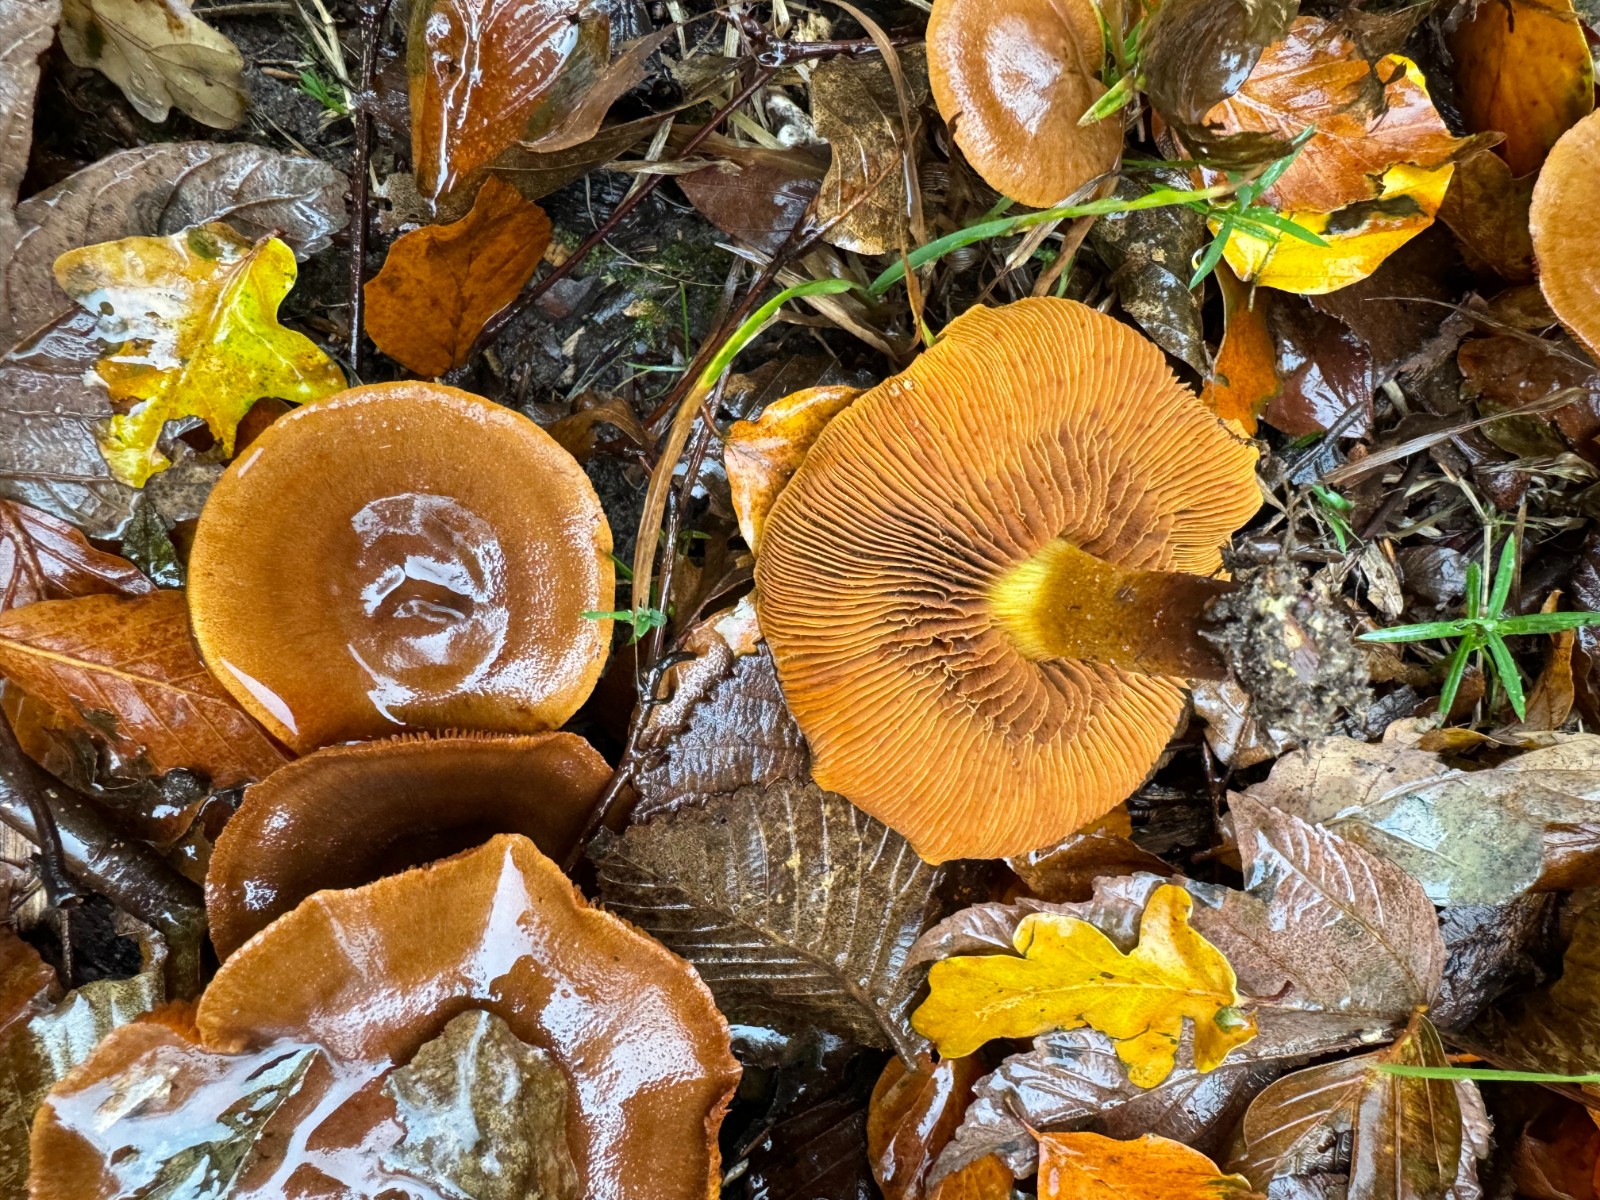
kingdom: Fungi
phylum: Basidiomycota
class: Agaricomycetes
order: Agaricales
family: Cortinariaceae
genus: Cortinarius
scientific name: Cortinarius malicorius
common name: grønkødet slørhat
